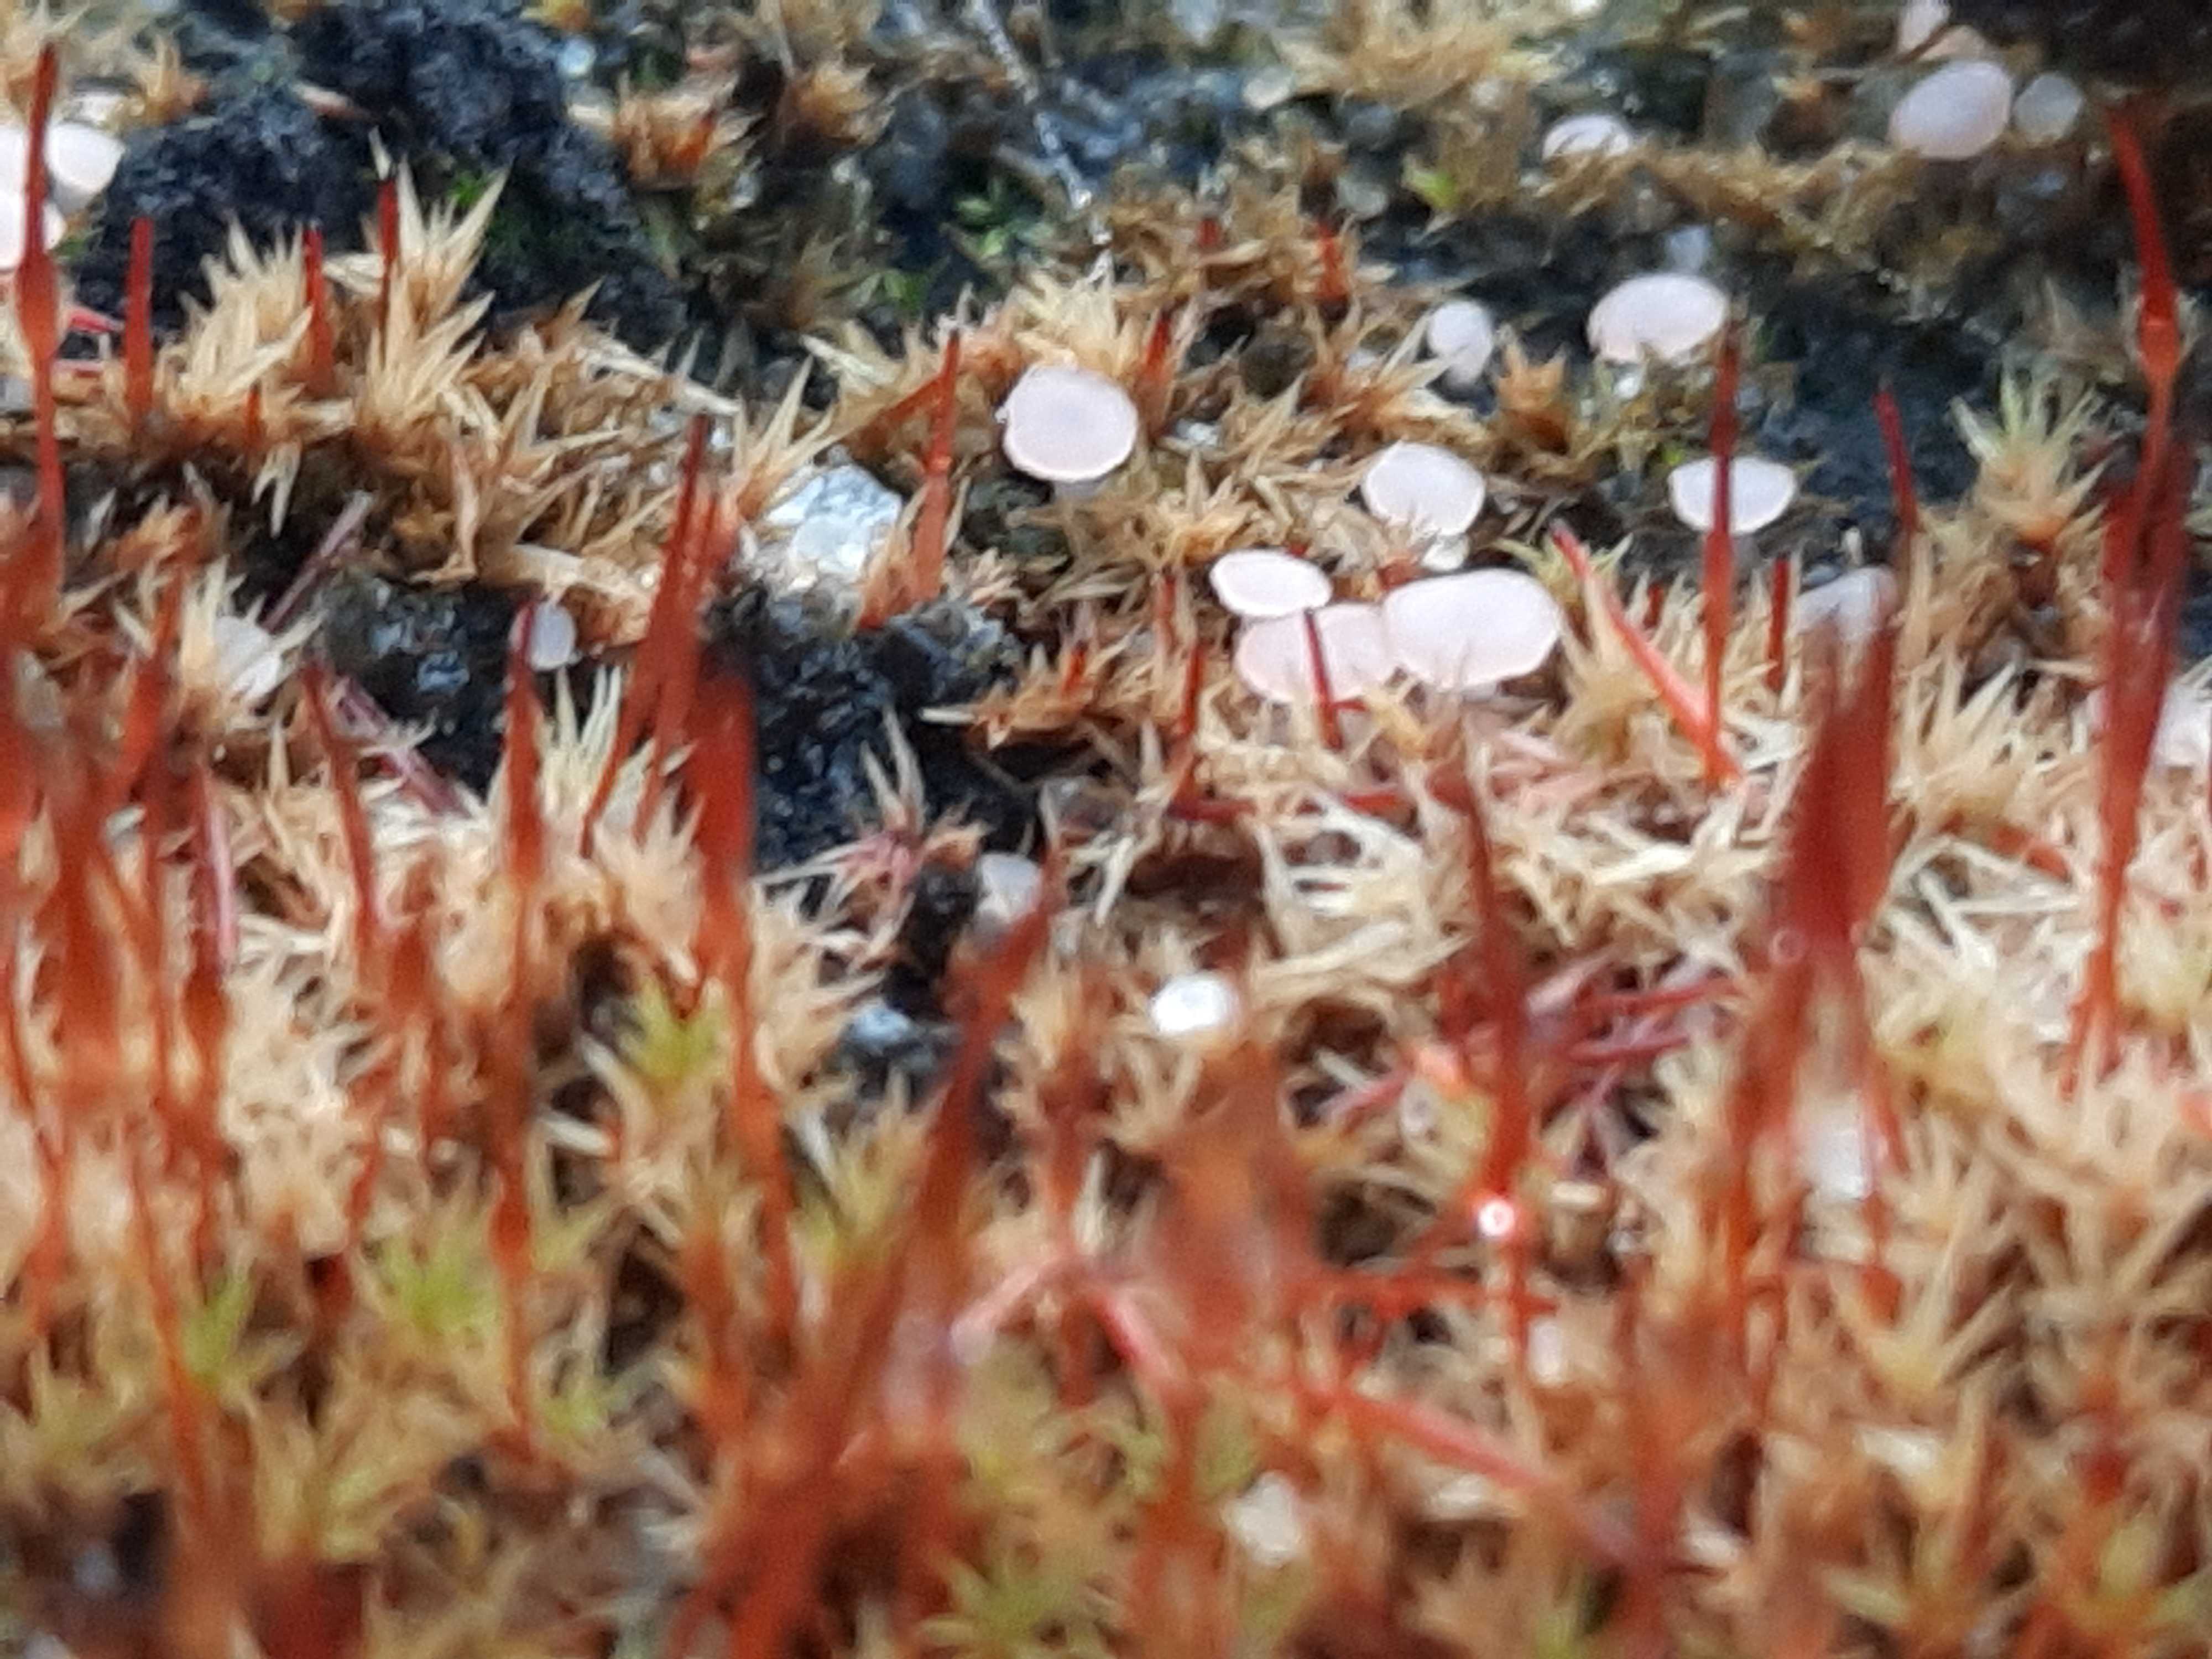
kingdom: Fungi
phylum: Ascomycota
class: Leotiomycetes
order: Helotiales
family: Hyaloscyphaceae
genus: Roseodiscus
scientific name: Roseodiscus formosus
